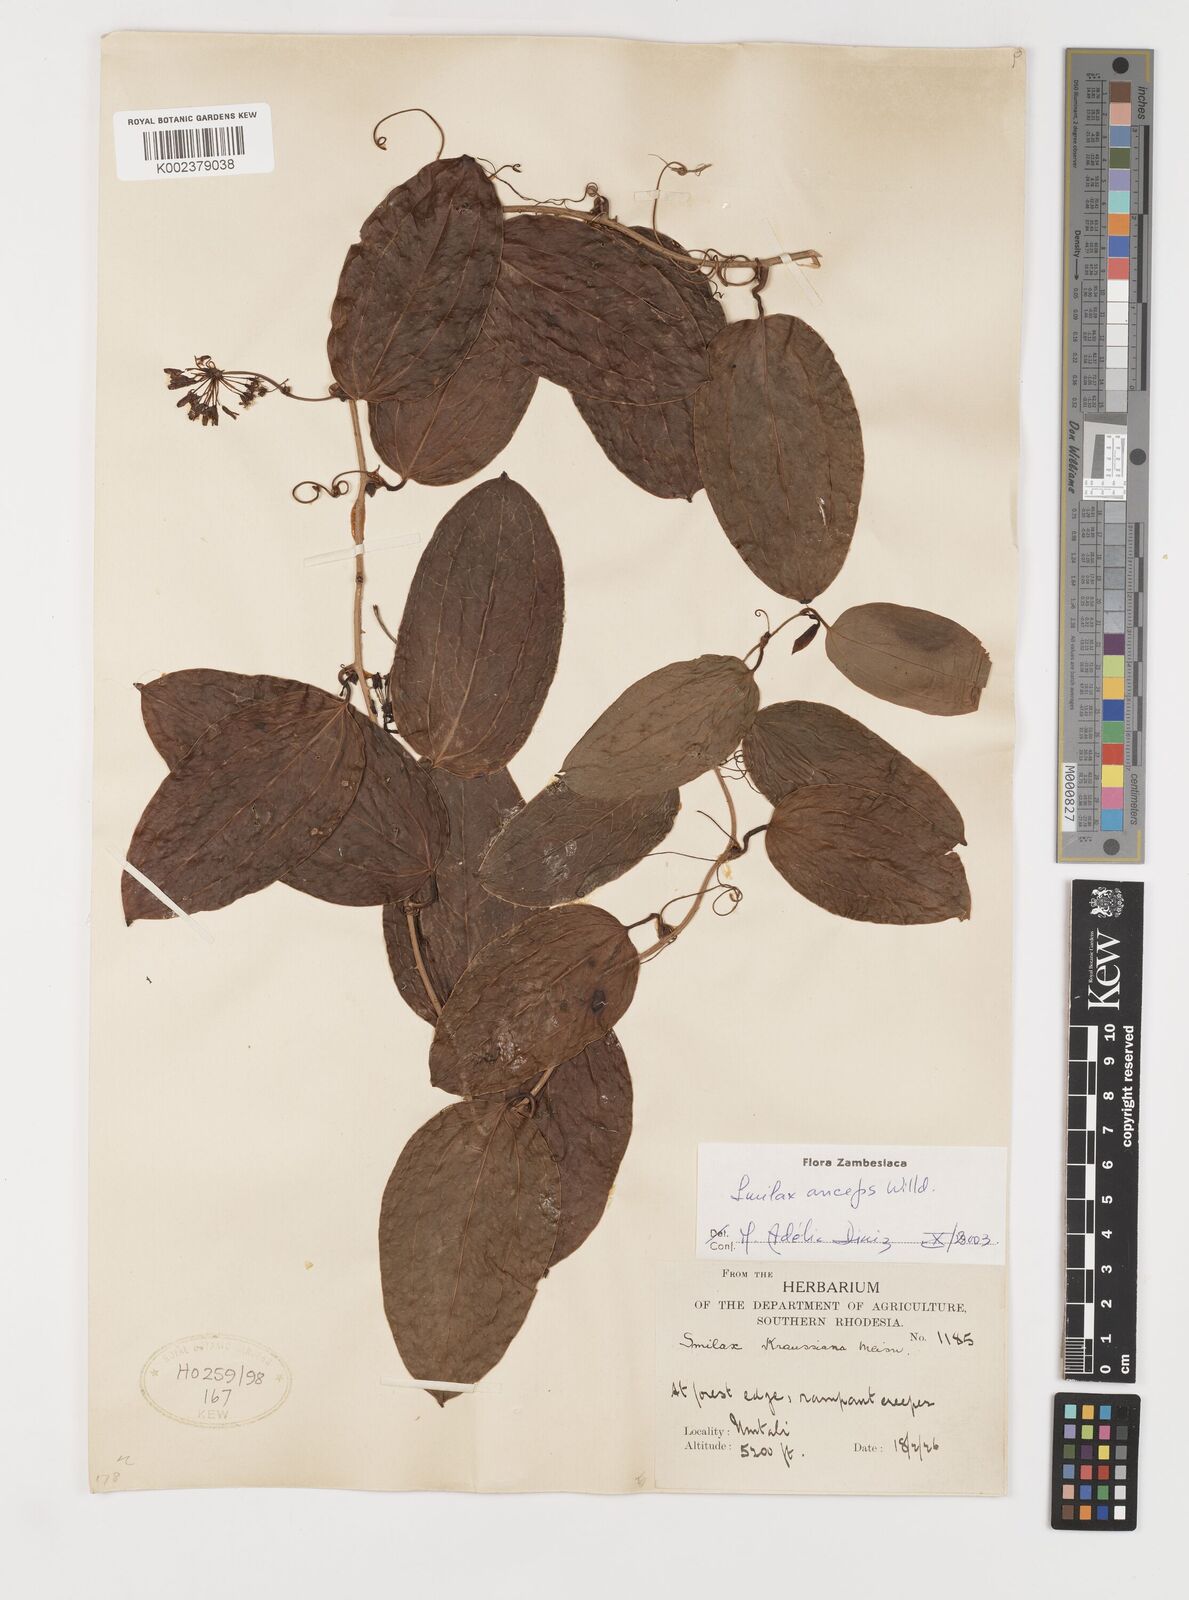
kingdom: Plantae
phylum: Tracheophyta
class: Liliopsida
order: Liliales
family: Smilacaceae
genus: Smilax
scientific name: Smilax anceps
